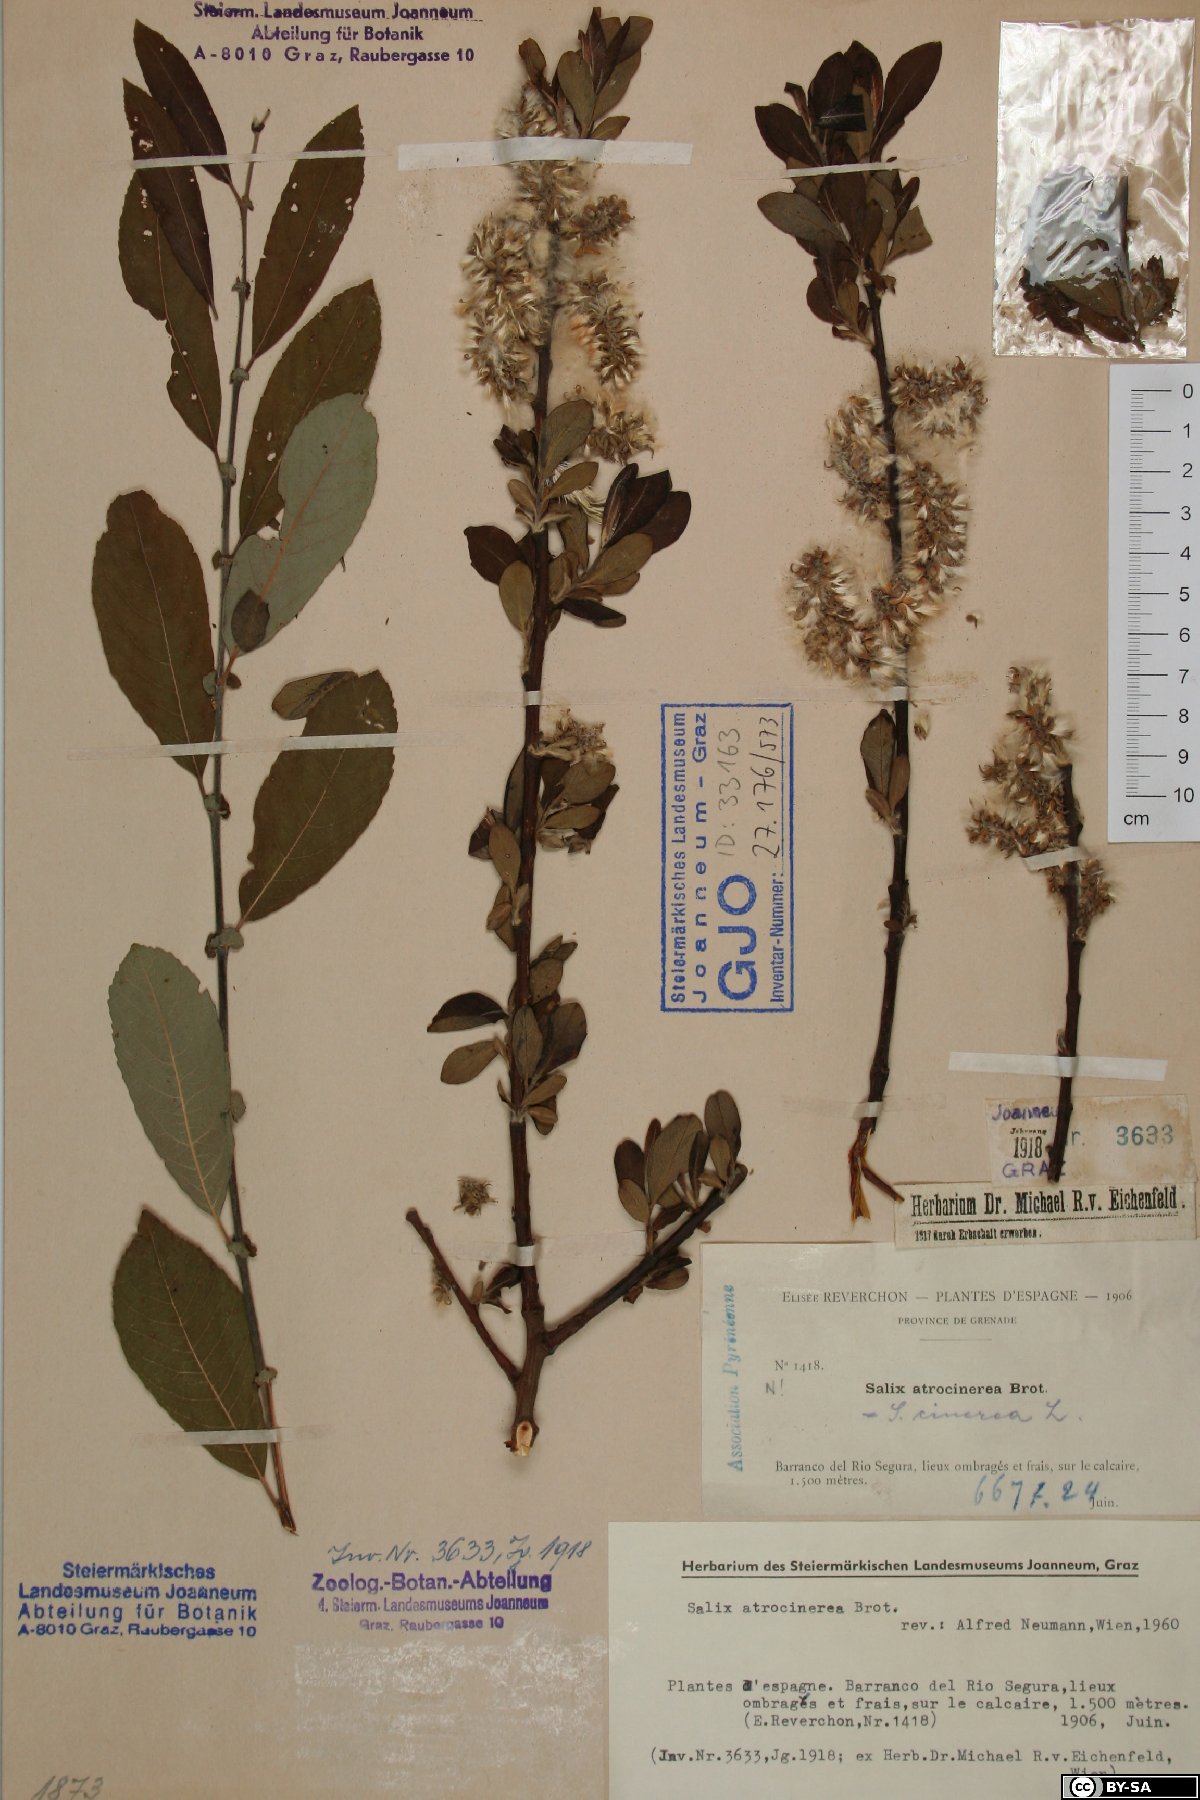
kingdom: Plantae
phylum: Tracheophyta
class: Magnoliopsida
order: Malpighiales
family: Salicaceae
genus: Salix
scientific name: Salix atrocinerea
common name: Rusty willow
